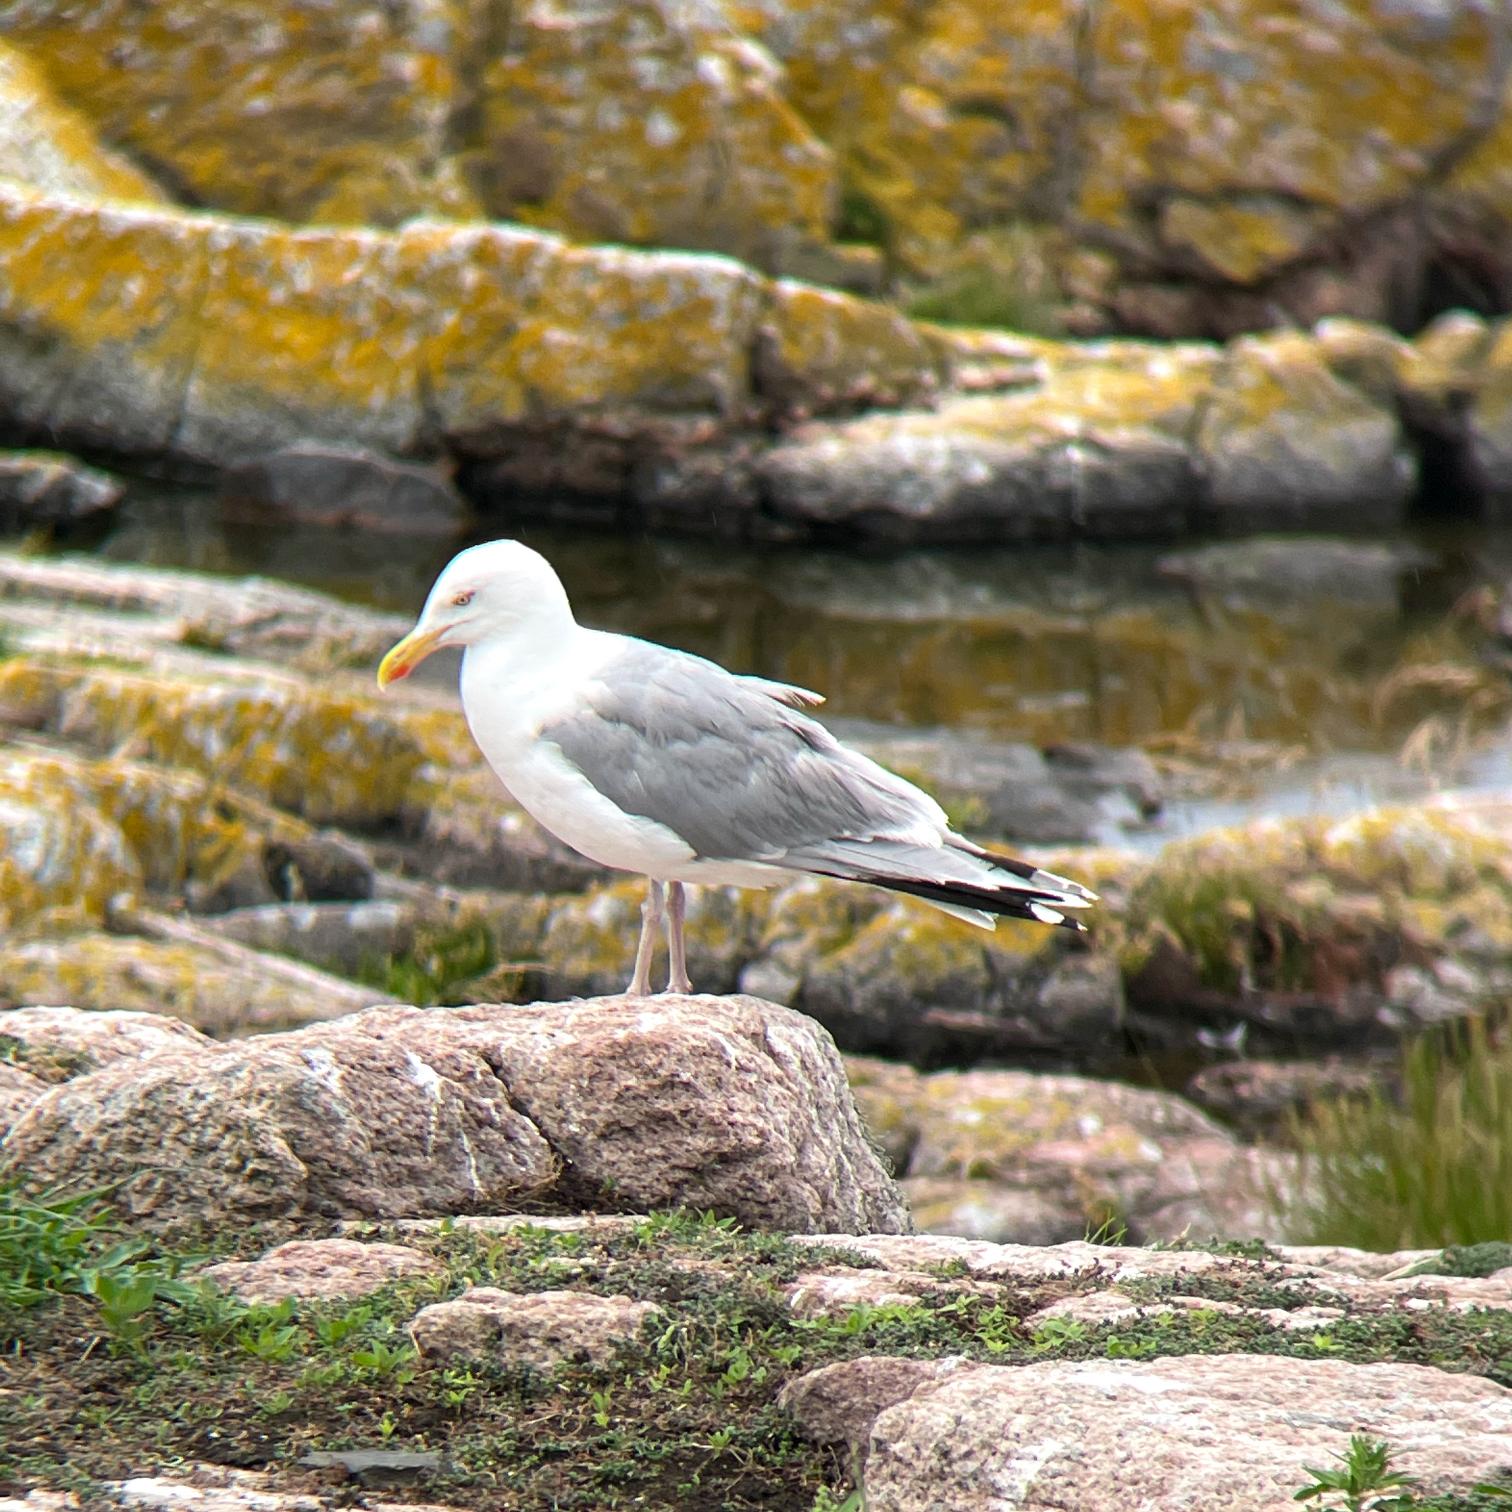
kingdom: Animalia
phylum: Chordata
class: Aves
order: Charadriiformes
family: Laridae
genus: Larus
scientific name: Larus argentatus
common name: Sølvmåge
